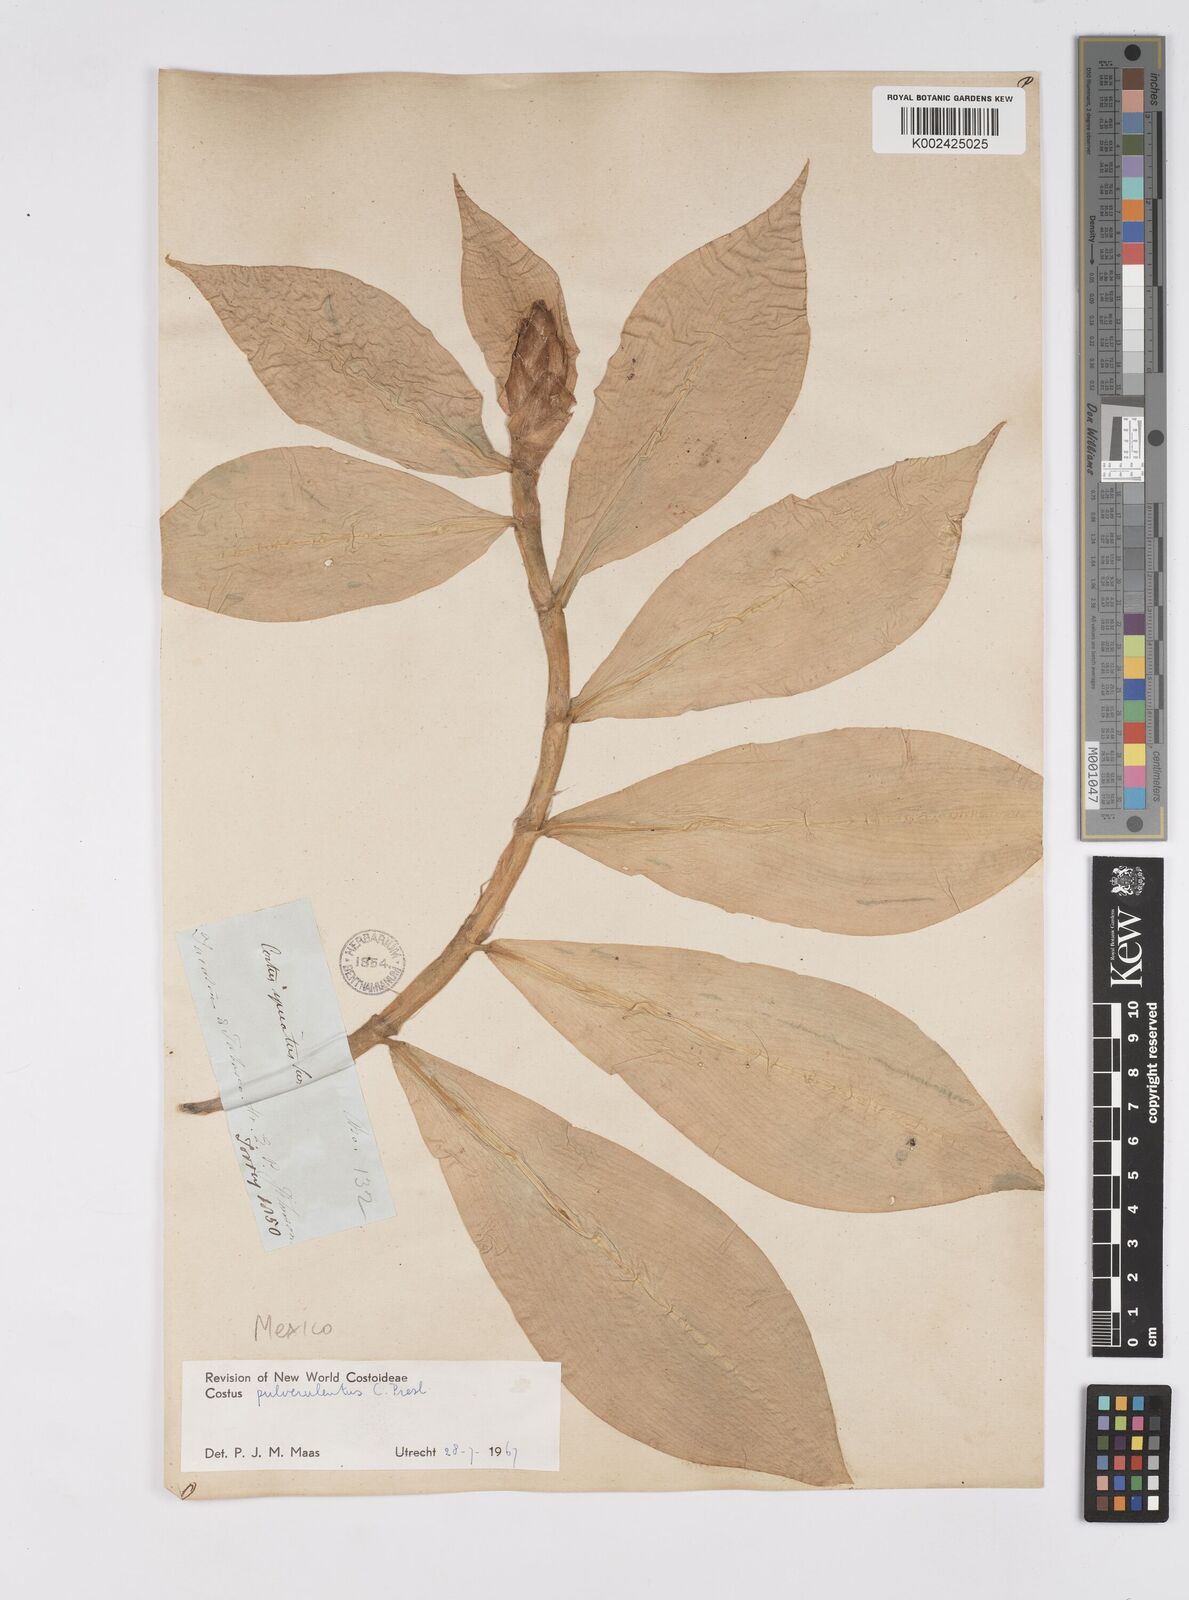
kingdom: Plantae
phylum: Tracheophyta
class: Liliopsida
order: Zingiberales
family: Costaceae
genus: Costus
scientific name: Costus pulverulentus
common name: Spiral ginger
